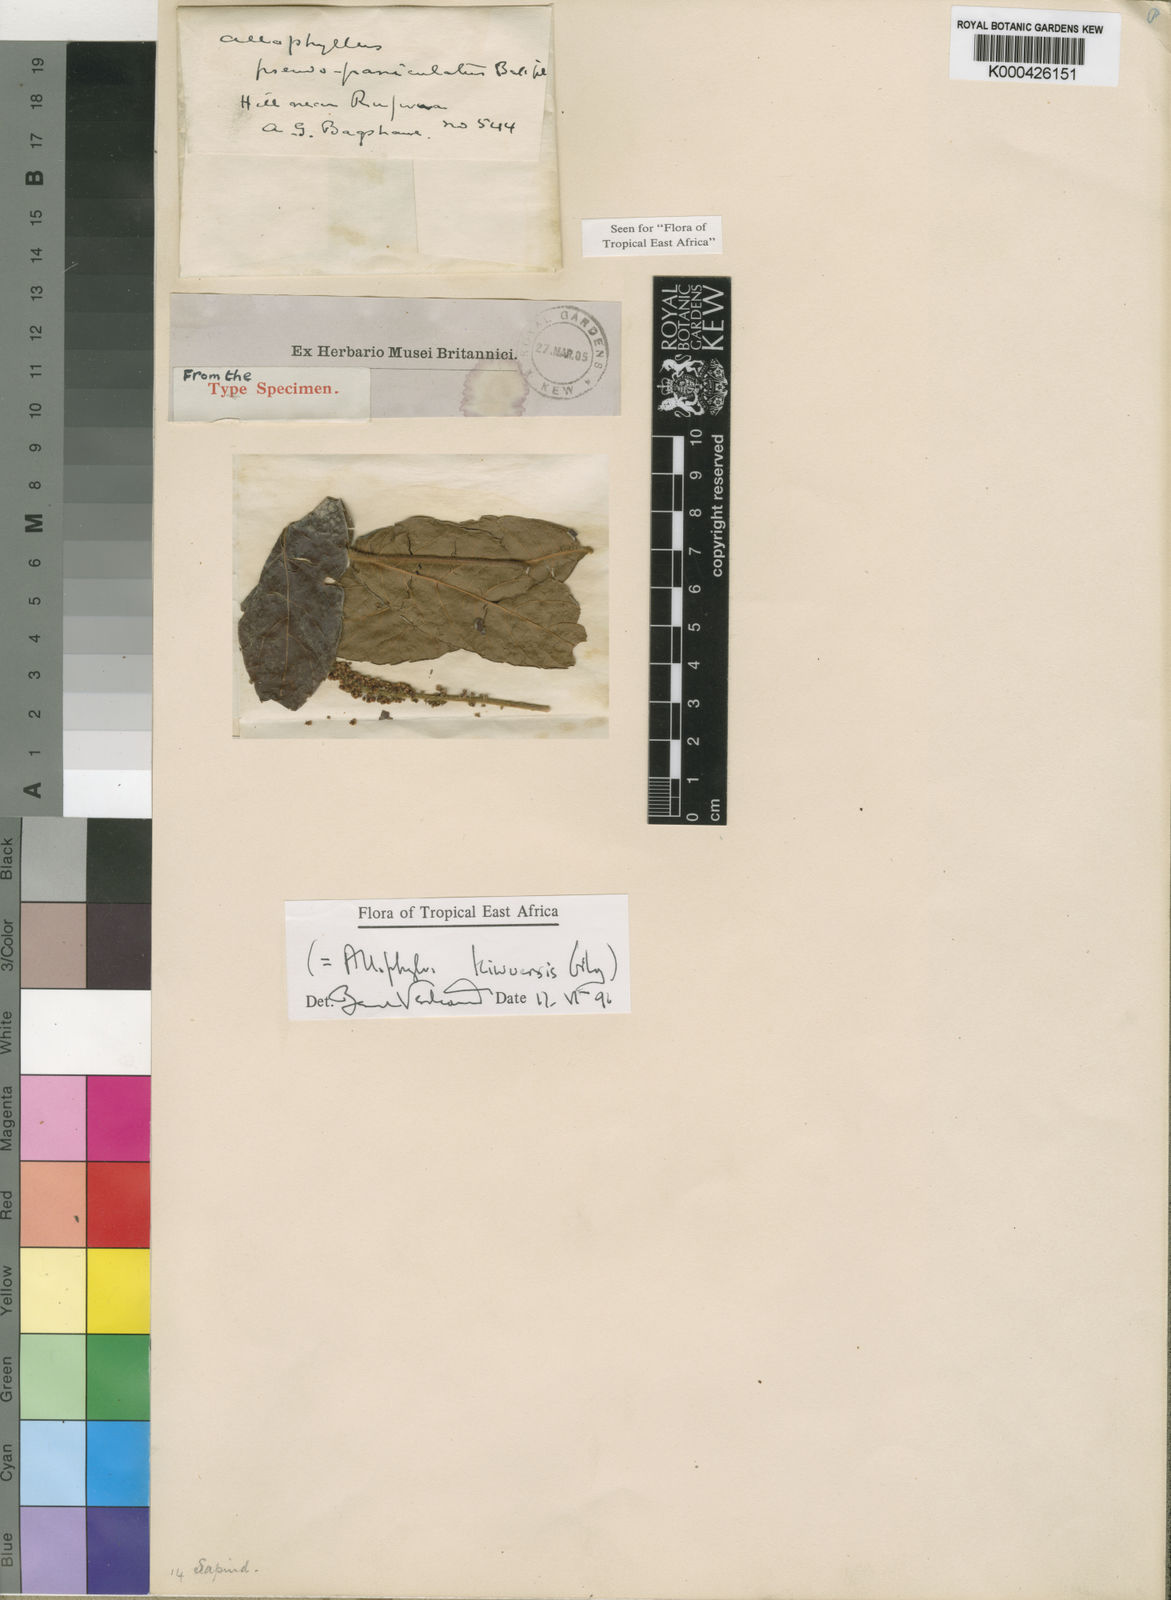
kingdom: Plantae
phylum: Tracheophyta
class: Magnoliopsida
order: Sapindales
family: Sapindaceae
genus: Allophylus
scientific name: Allophylus pseudopaniculatus
